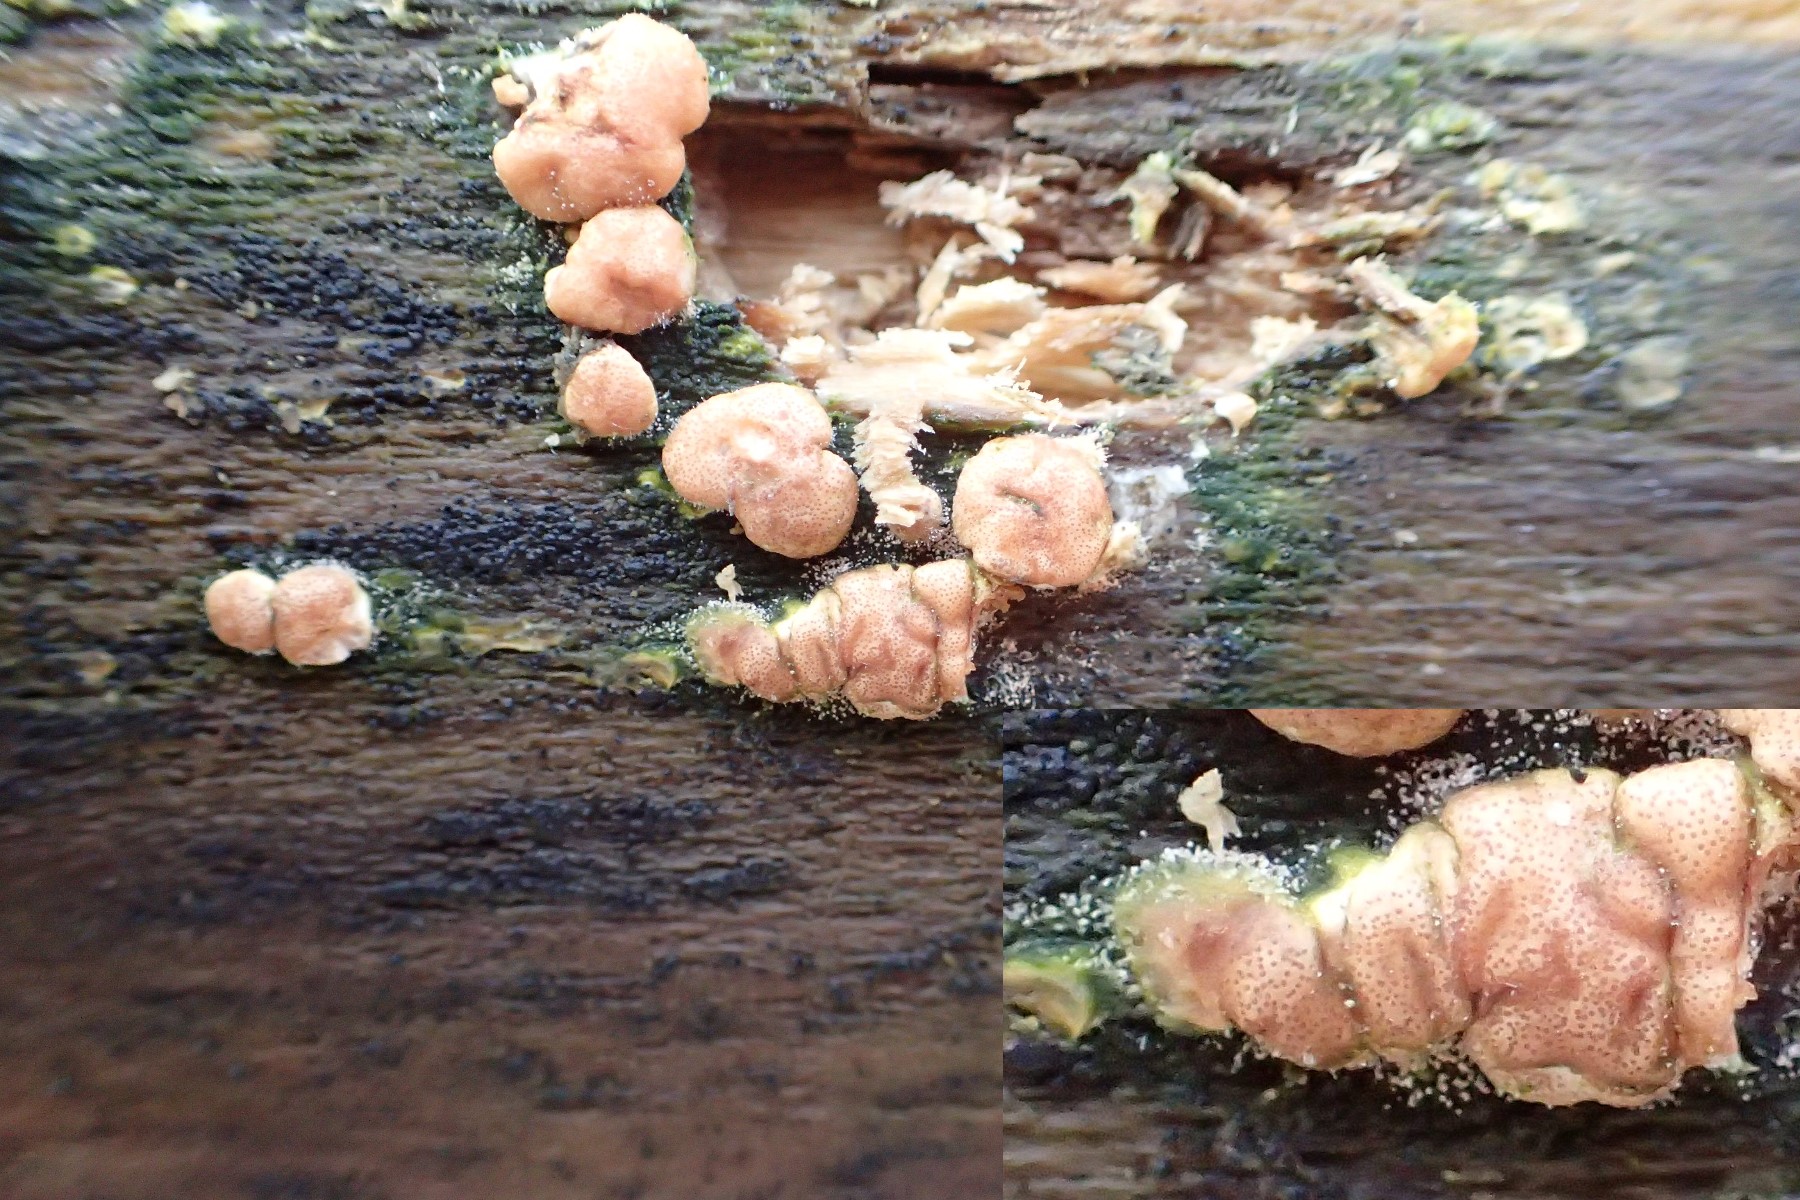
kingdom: Fungi
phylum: Ascomycota
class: Sordariomycetes
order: Hypocreales
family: Hypocreaceae
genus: Trichoderma
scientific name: Trichoderma europaeum
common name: rosabrun kødkerne
